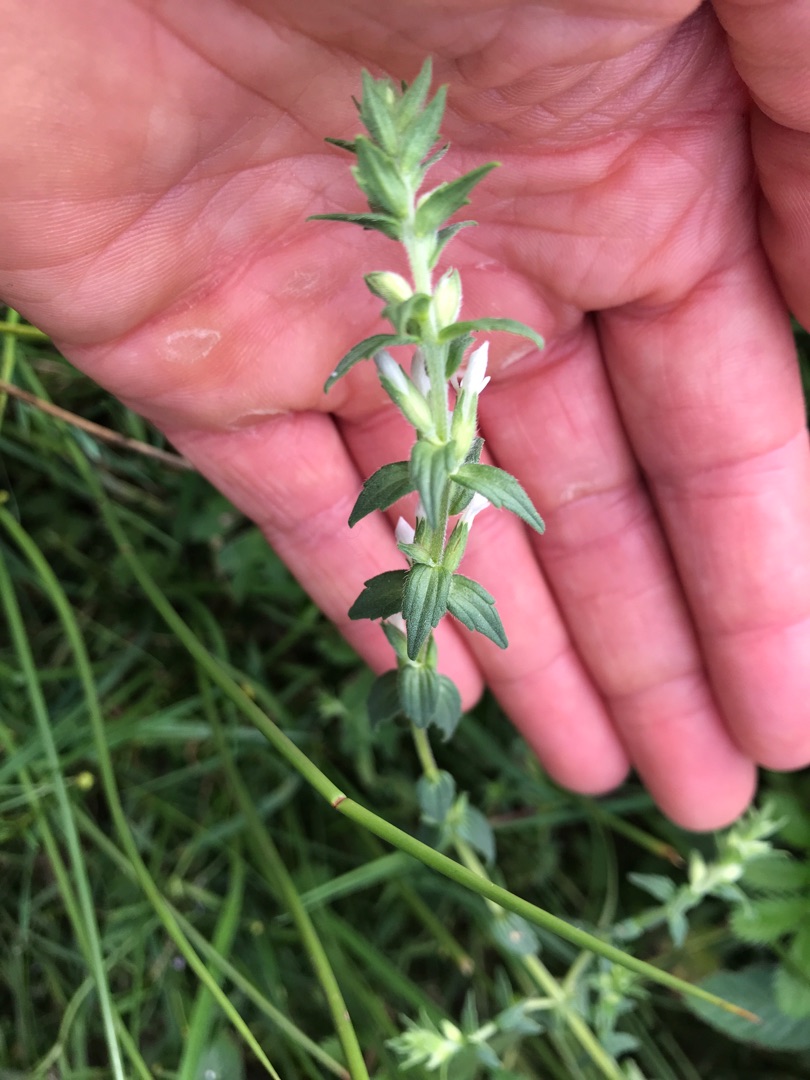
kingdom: Plantae
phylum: Tracheophyta
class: Magnoliopsida
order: Lamiales
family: Orobanchaceae
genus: Odontites
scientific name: Odontites
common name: Rødtopslægten
